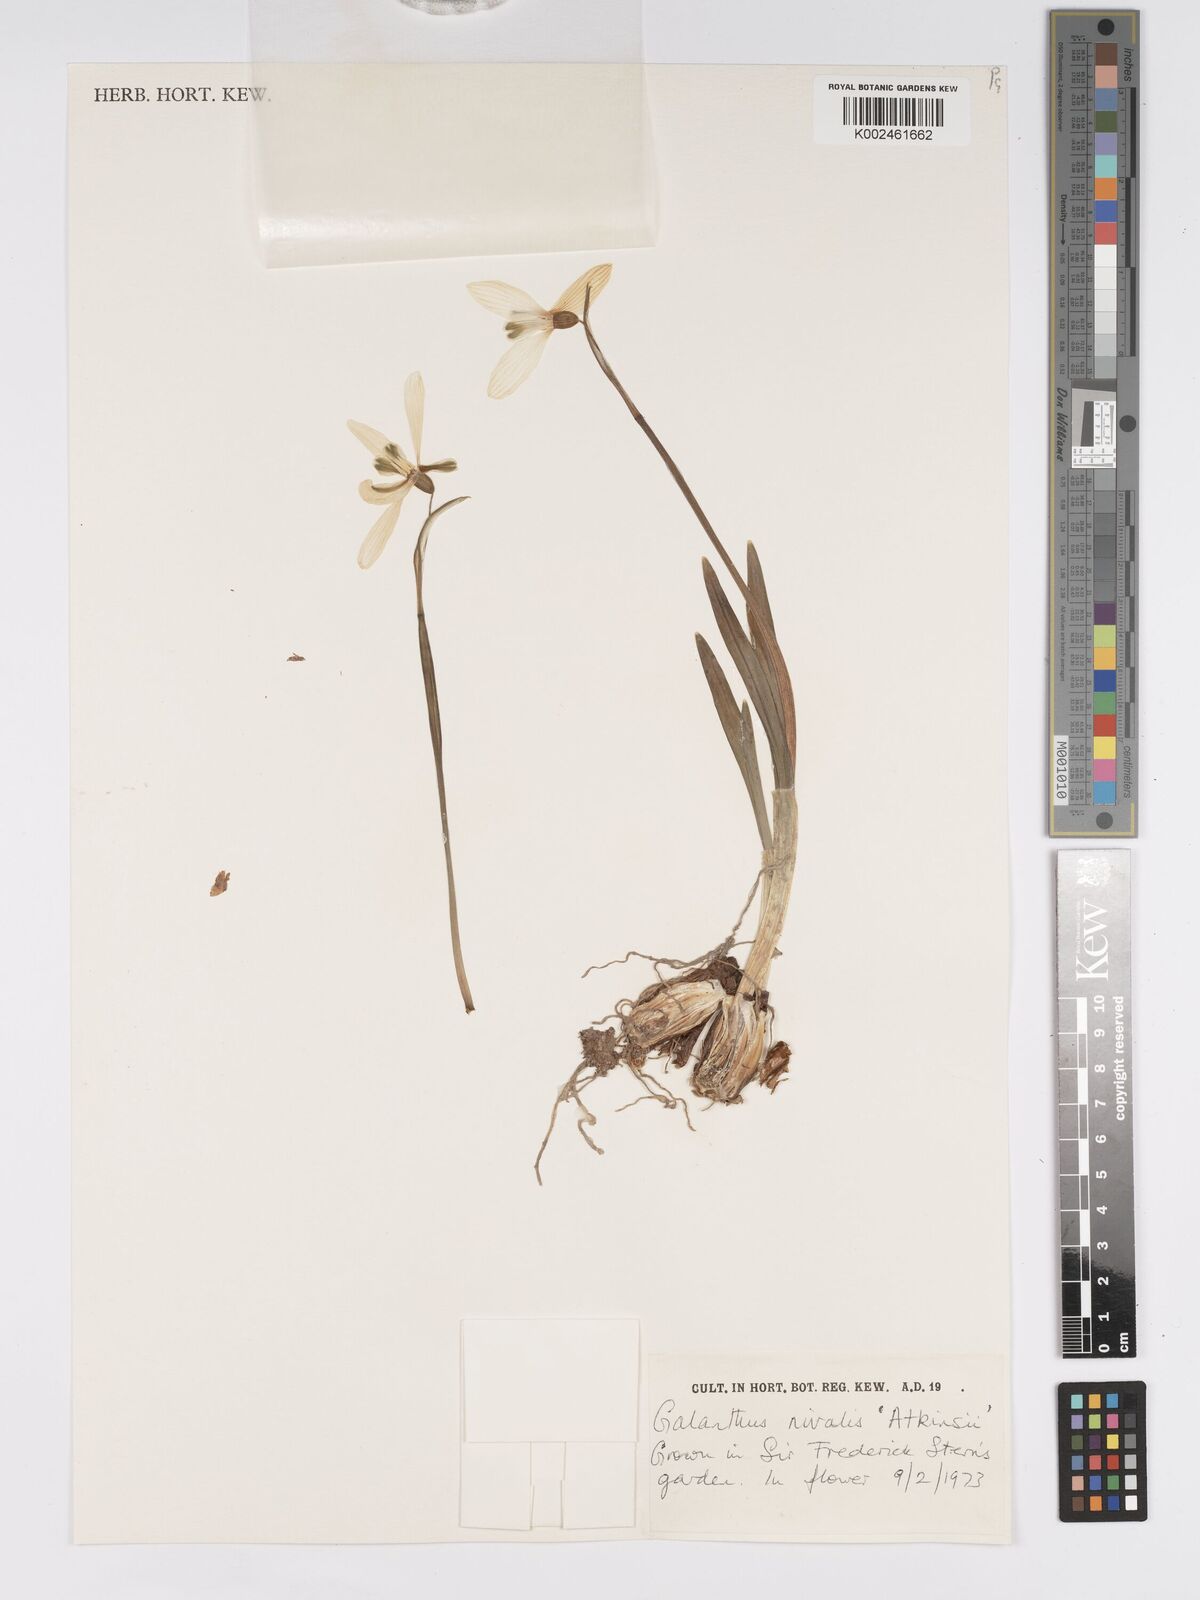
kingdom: Plantae
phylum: Tracheophyta
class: Liliopsida
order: Asparagales
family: Amaryllidaceae
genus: Galanthus
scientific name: Galanthus
